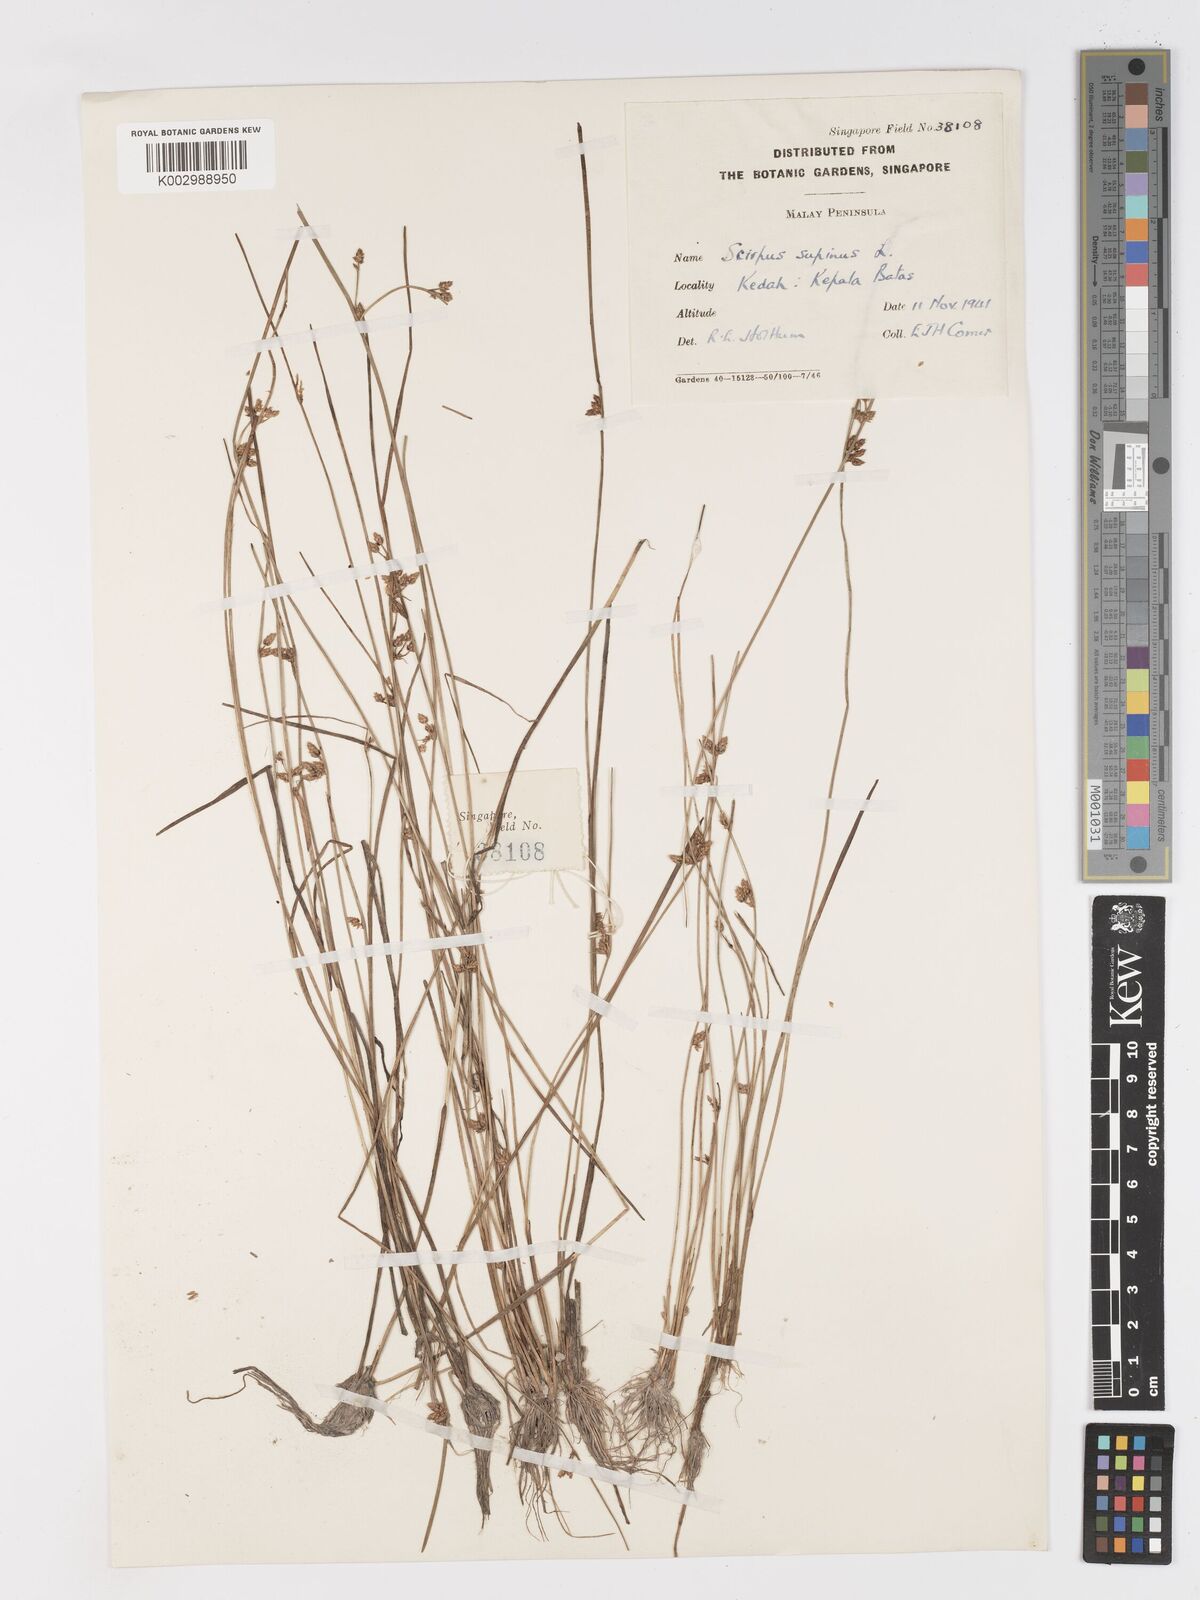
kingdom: Plantae
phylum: Tracheophyta
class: Liliopsida
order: Poales
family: Cyperaceae
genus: Schoenoplectiella
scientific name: Schoenoplectiella lateriflora
